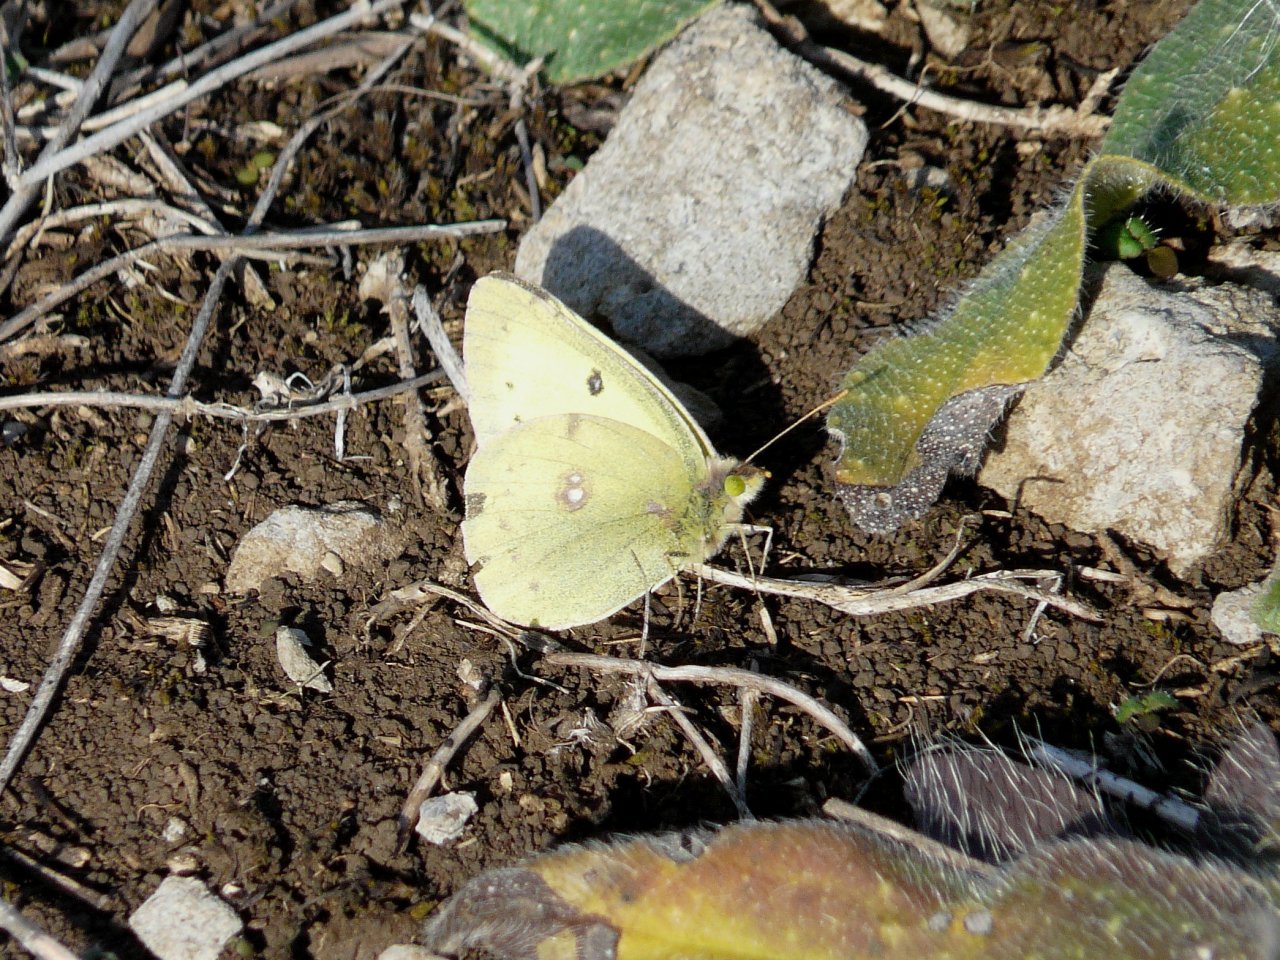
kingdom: Animalia
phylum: Arthropoda
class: Insecta
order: Lepidoptera
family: Pieridae
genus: Colias
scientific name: Colias philodice
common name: Clouded Sulphur
